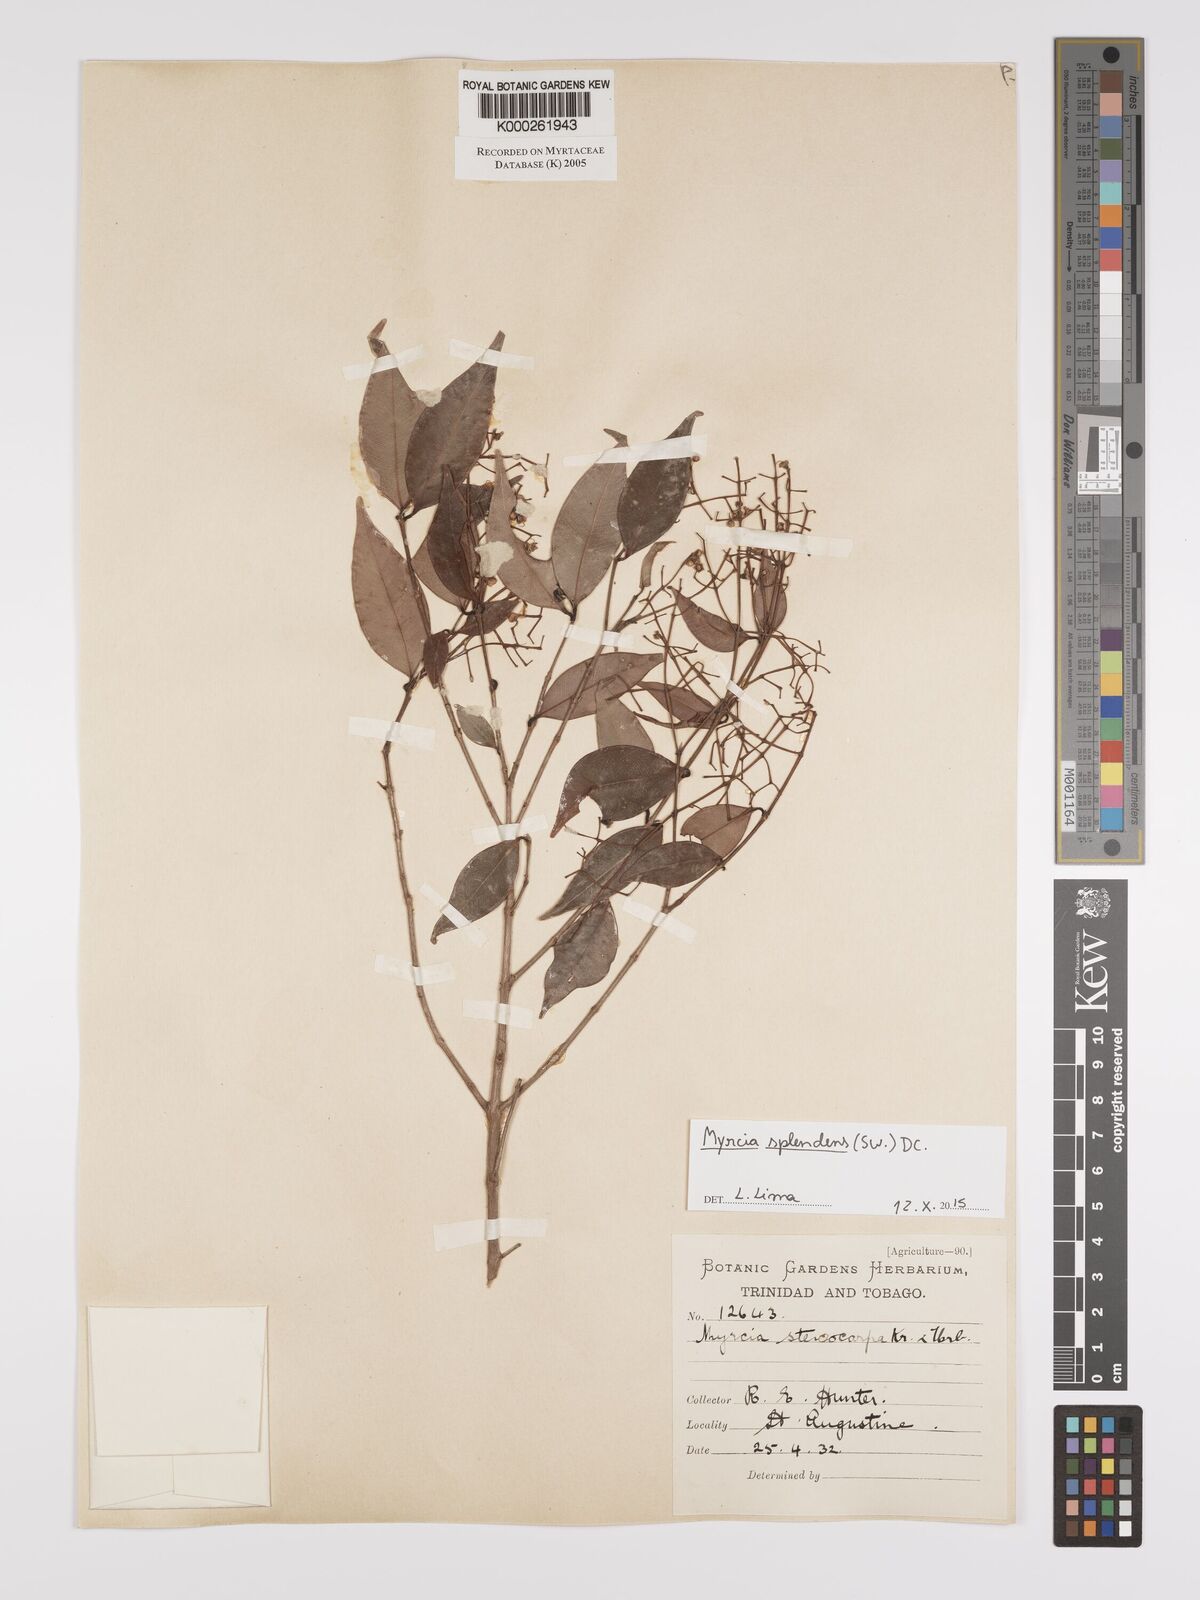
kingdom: Plantae
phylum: Tracheophyta
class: Magnoliopsida
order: Myrtales
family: Myrtaceae
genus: Myrcia
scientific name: Myrcia stenocarpa
